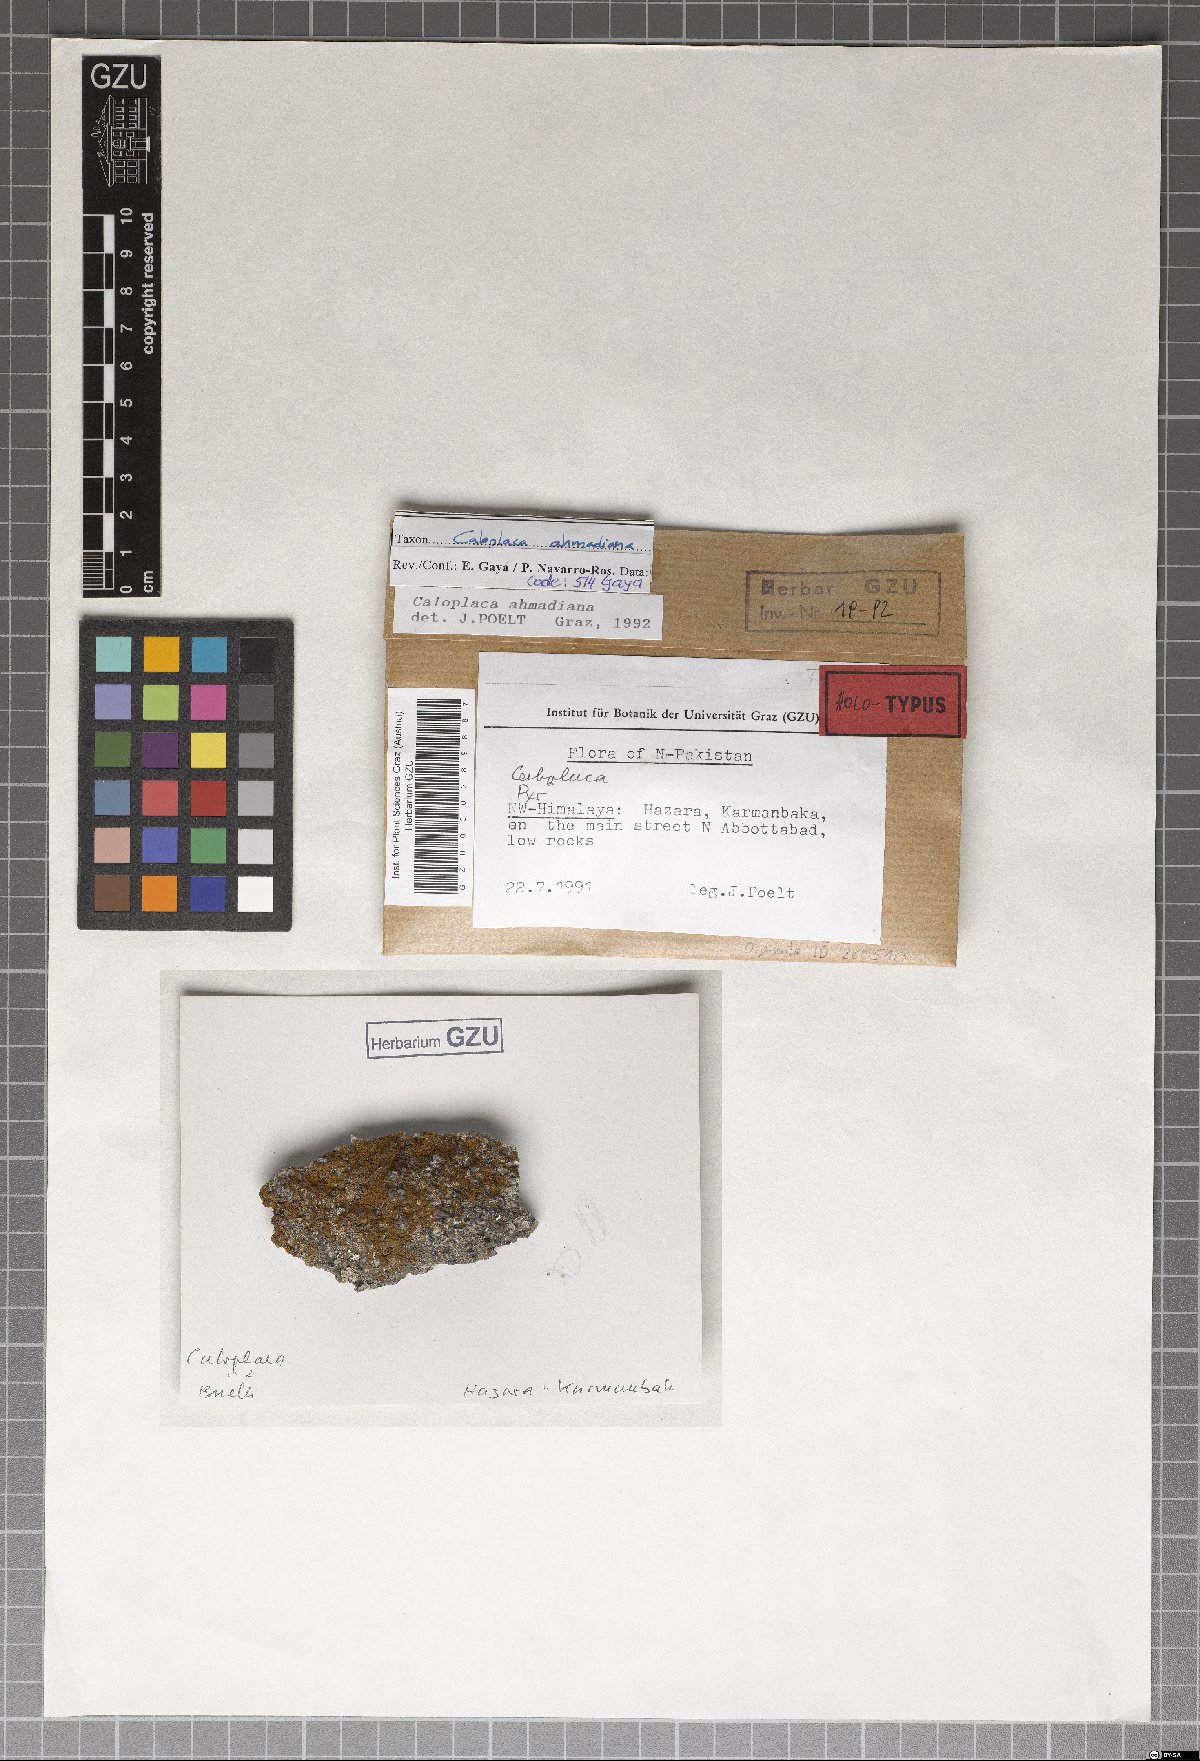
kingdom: Fungi
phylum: Ascomycota
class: Lecanoromycetes
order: Teloschistales
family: Teloschistaceae
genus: Caloplaca
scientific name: Caloplaca
